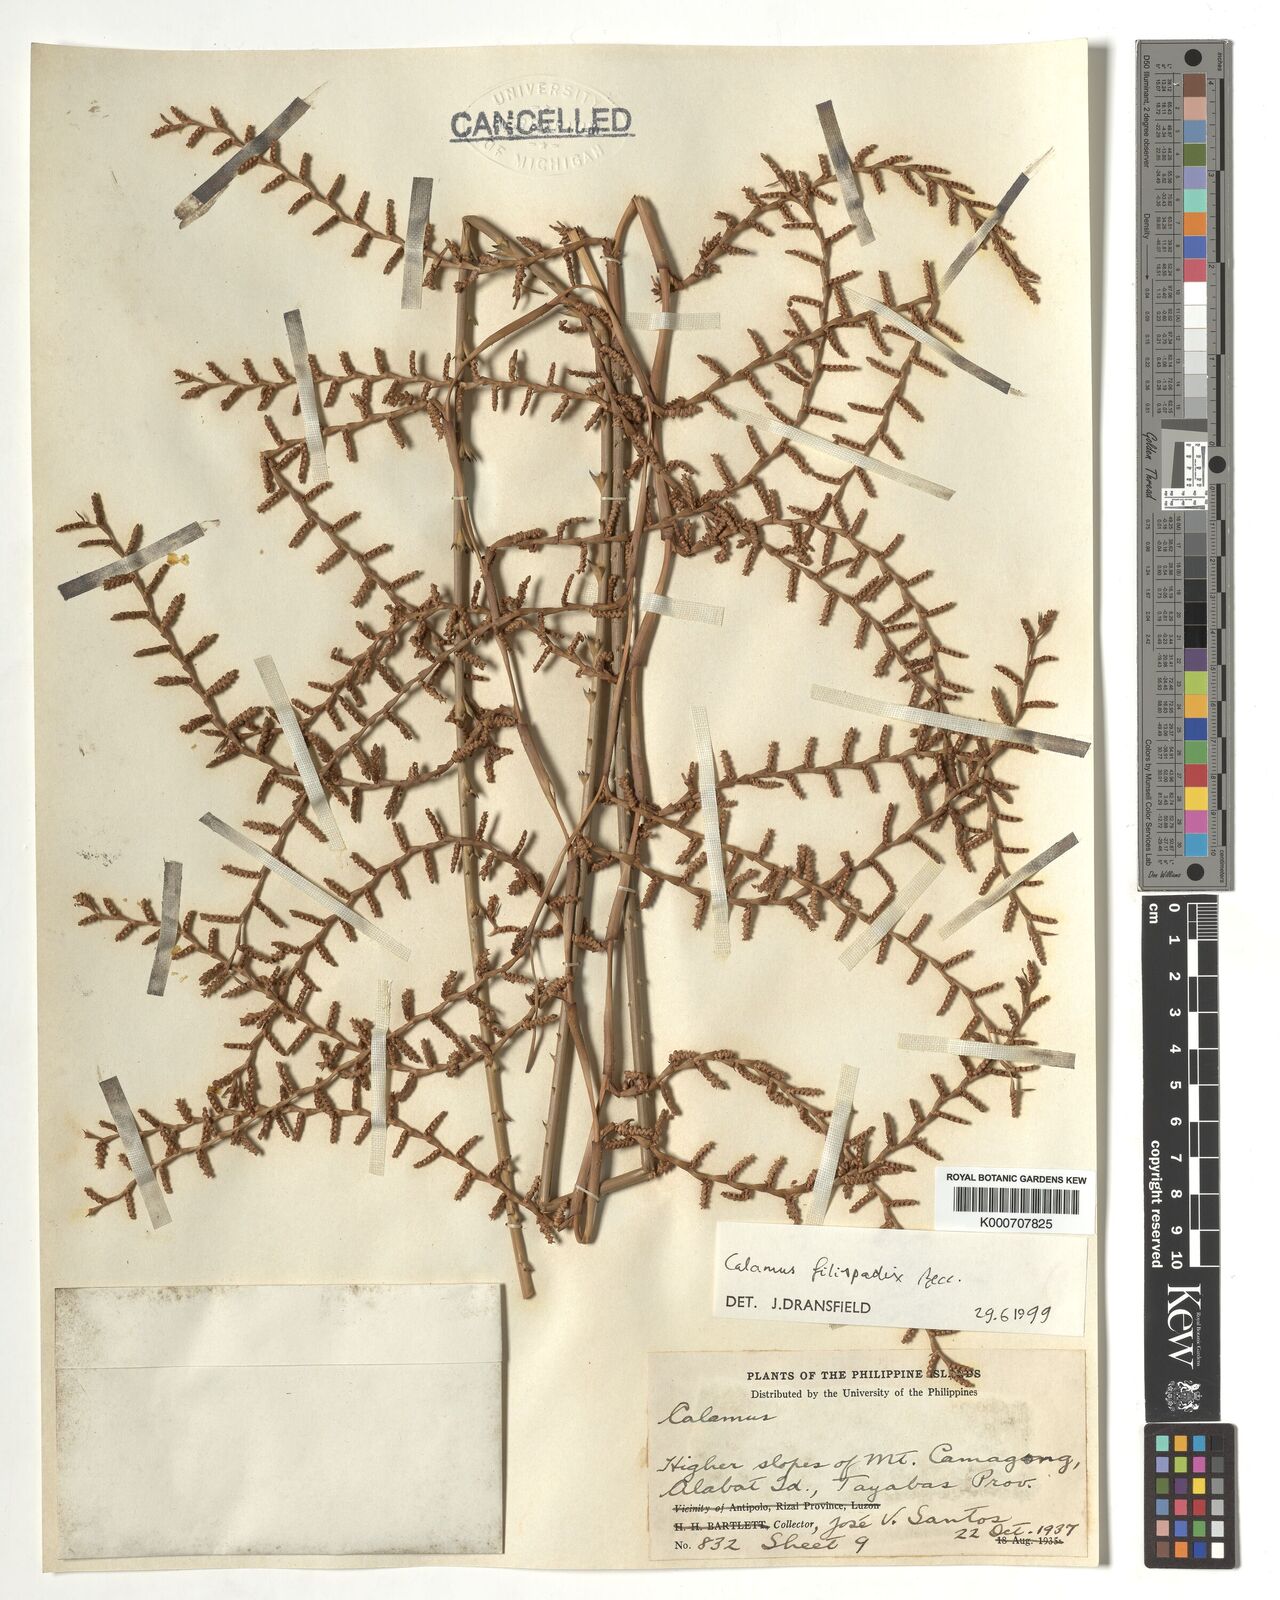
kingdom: Plantae
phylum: Tracheophyta
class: Liliopsida
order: Arecales
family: Arecaceae
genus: Calamus
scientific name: Calamus filispadix
